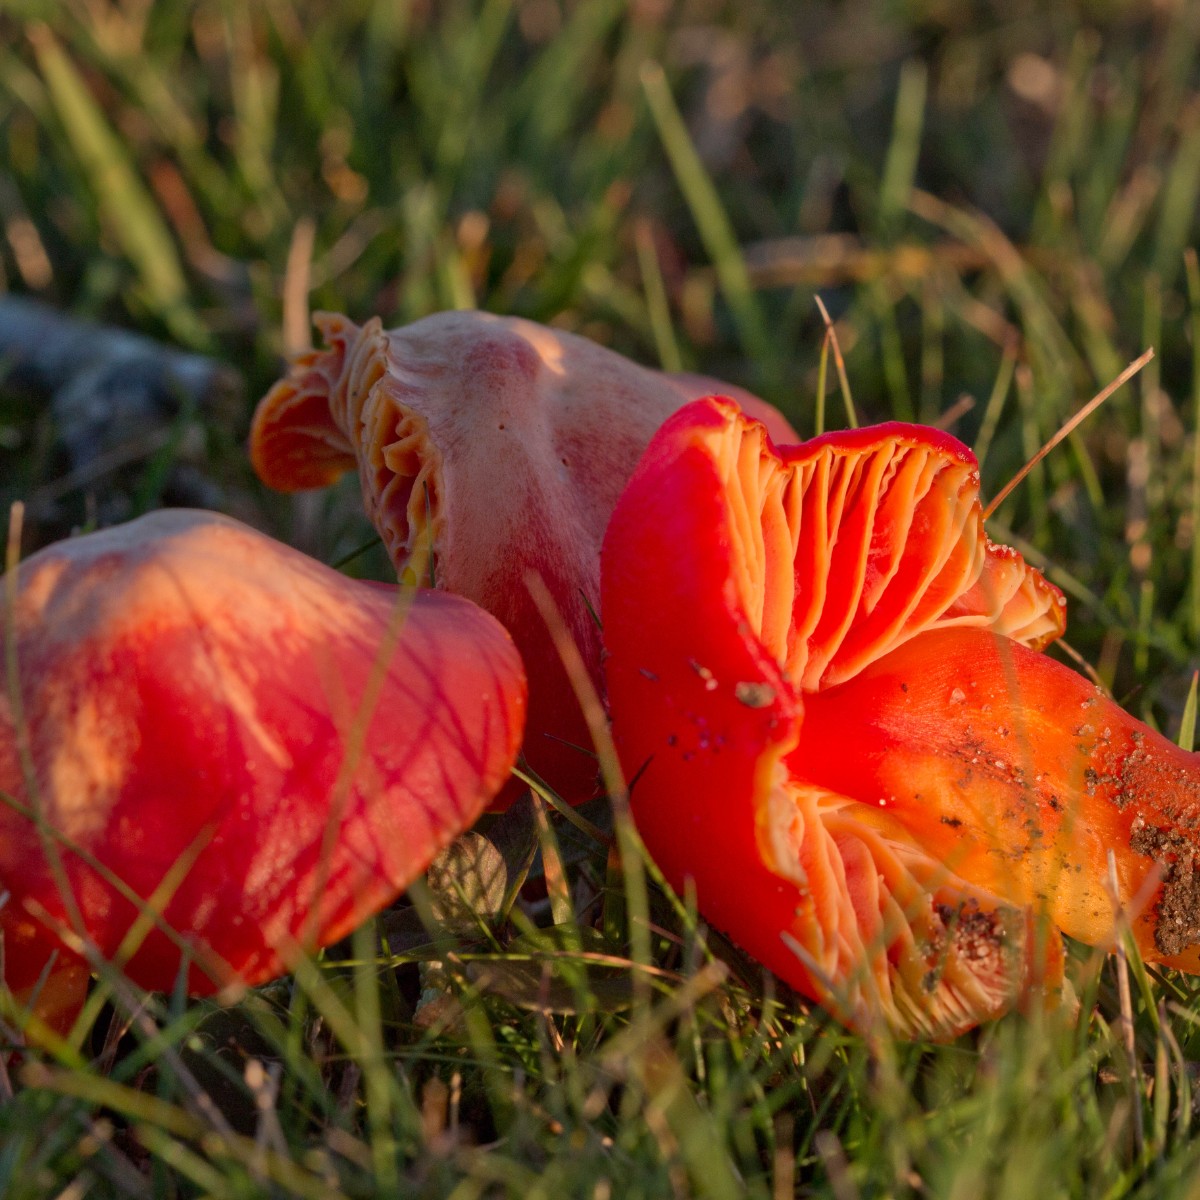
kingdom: Fungi
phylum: Basidiomycota
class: Agaricomycetes
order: Agaricales
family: Hygrophoraceae
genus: Hygrocybe
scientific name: Hygrocybe coccinea
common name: cinnober-vokshat
